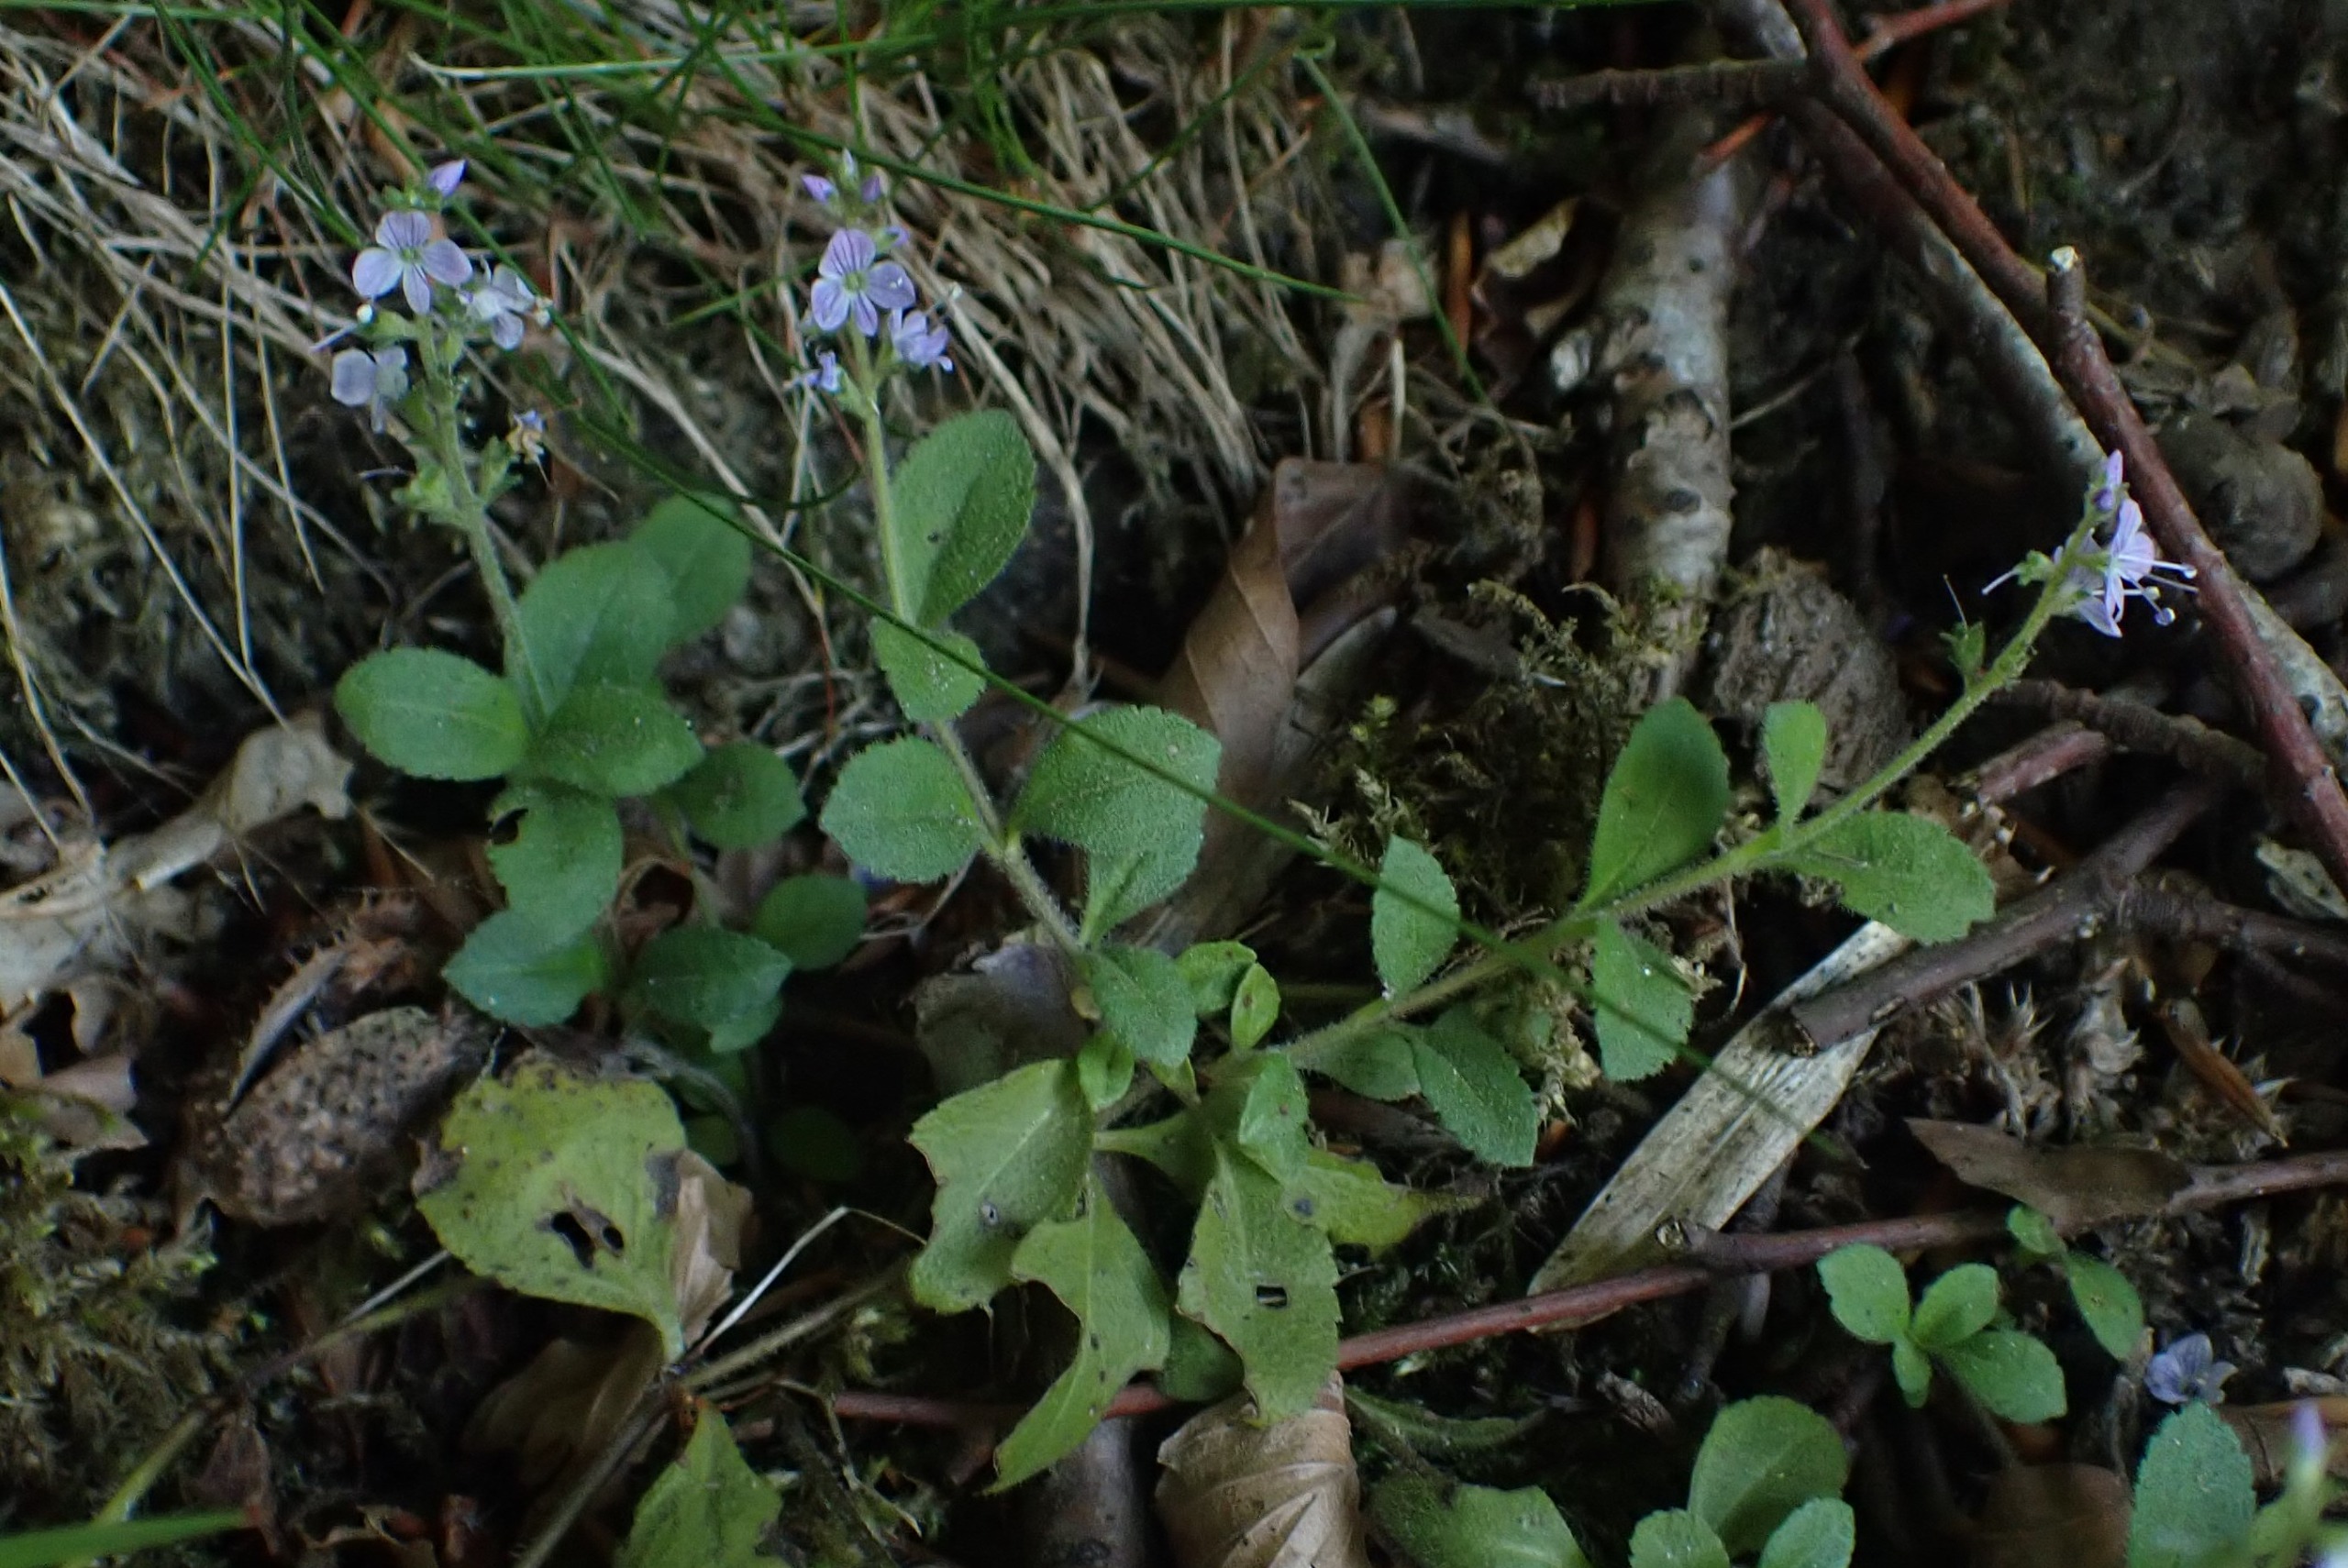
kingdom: Plantae
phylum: Tracheophyta
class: Magnoliopsida
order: Lamiales
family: Plantaginaceae
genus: Veronica
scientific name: Veronica officinalis
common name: Læge-ærenpris
